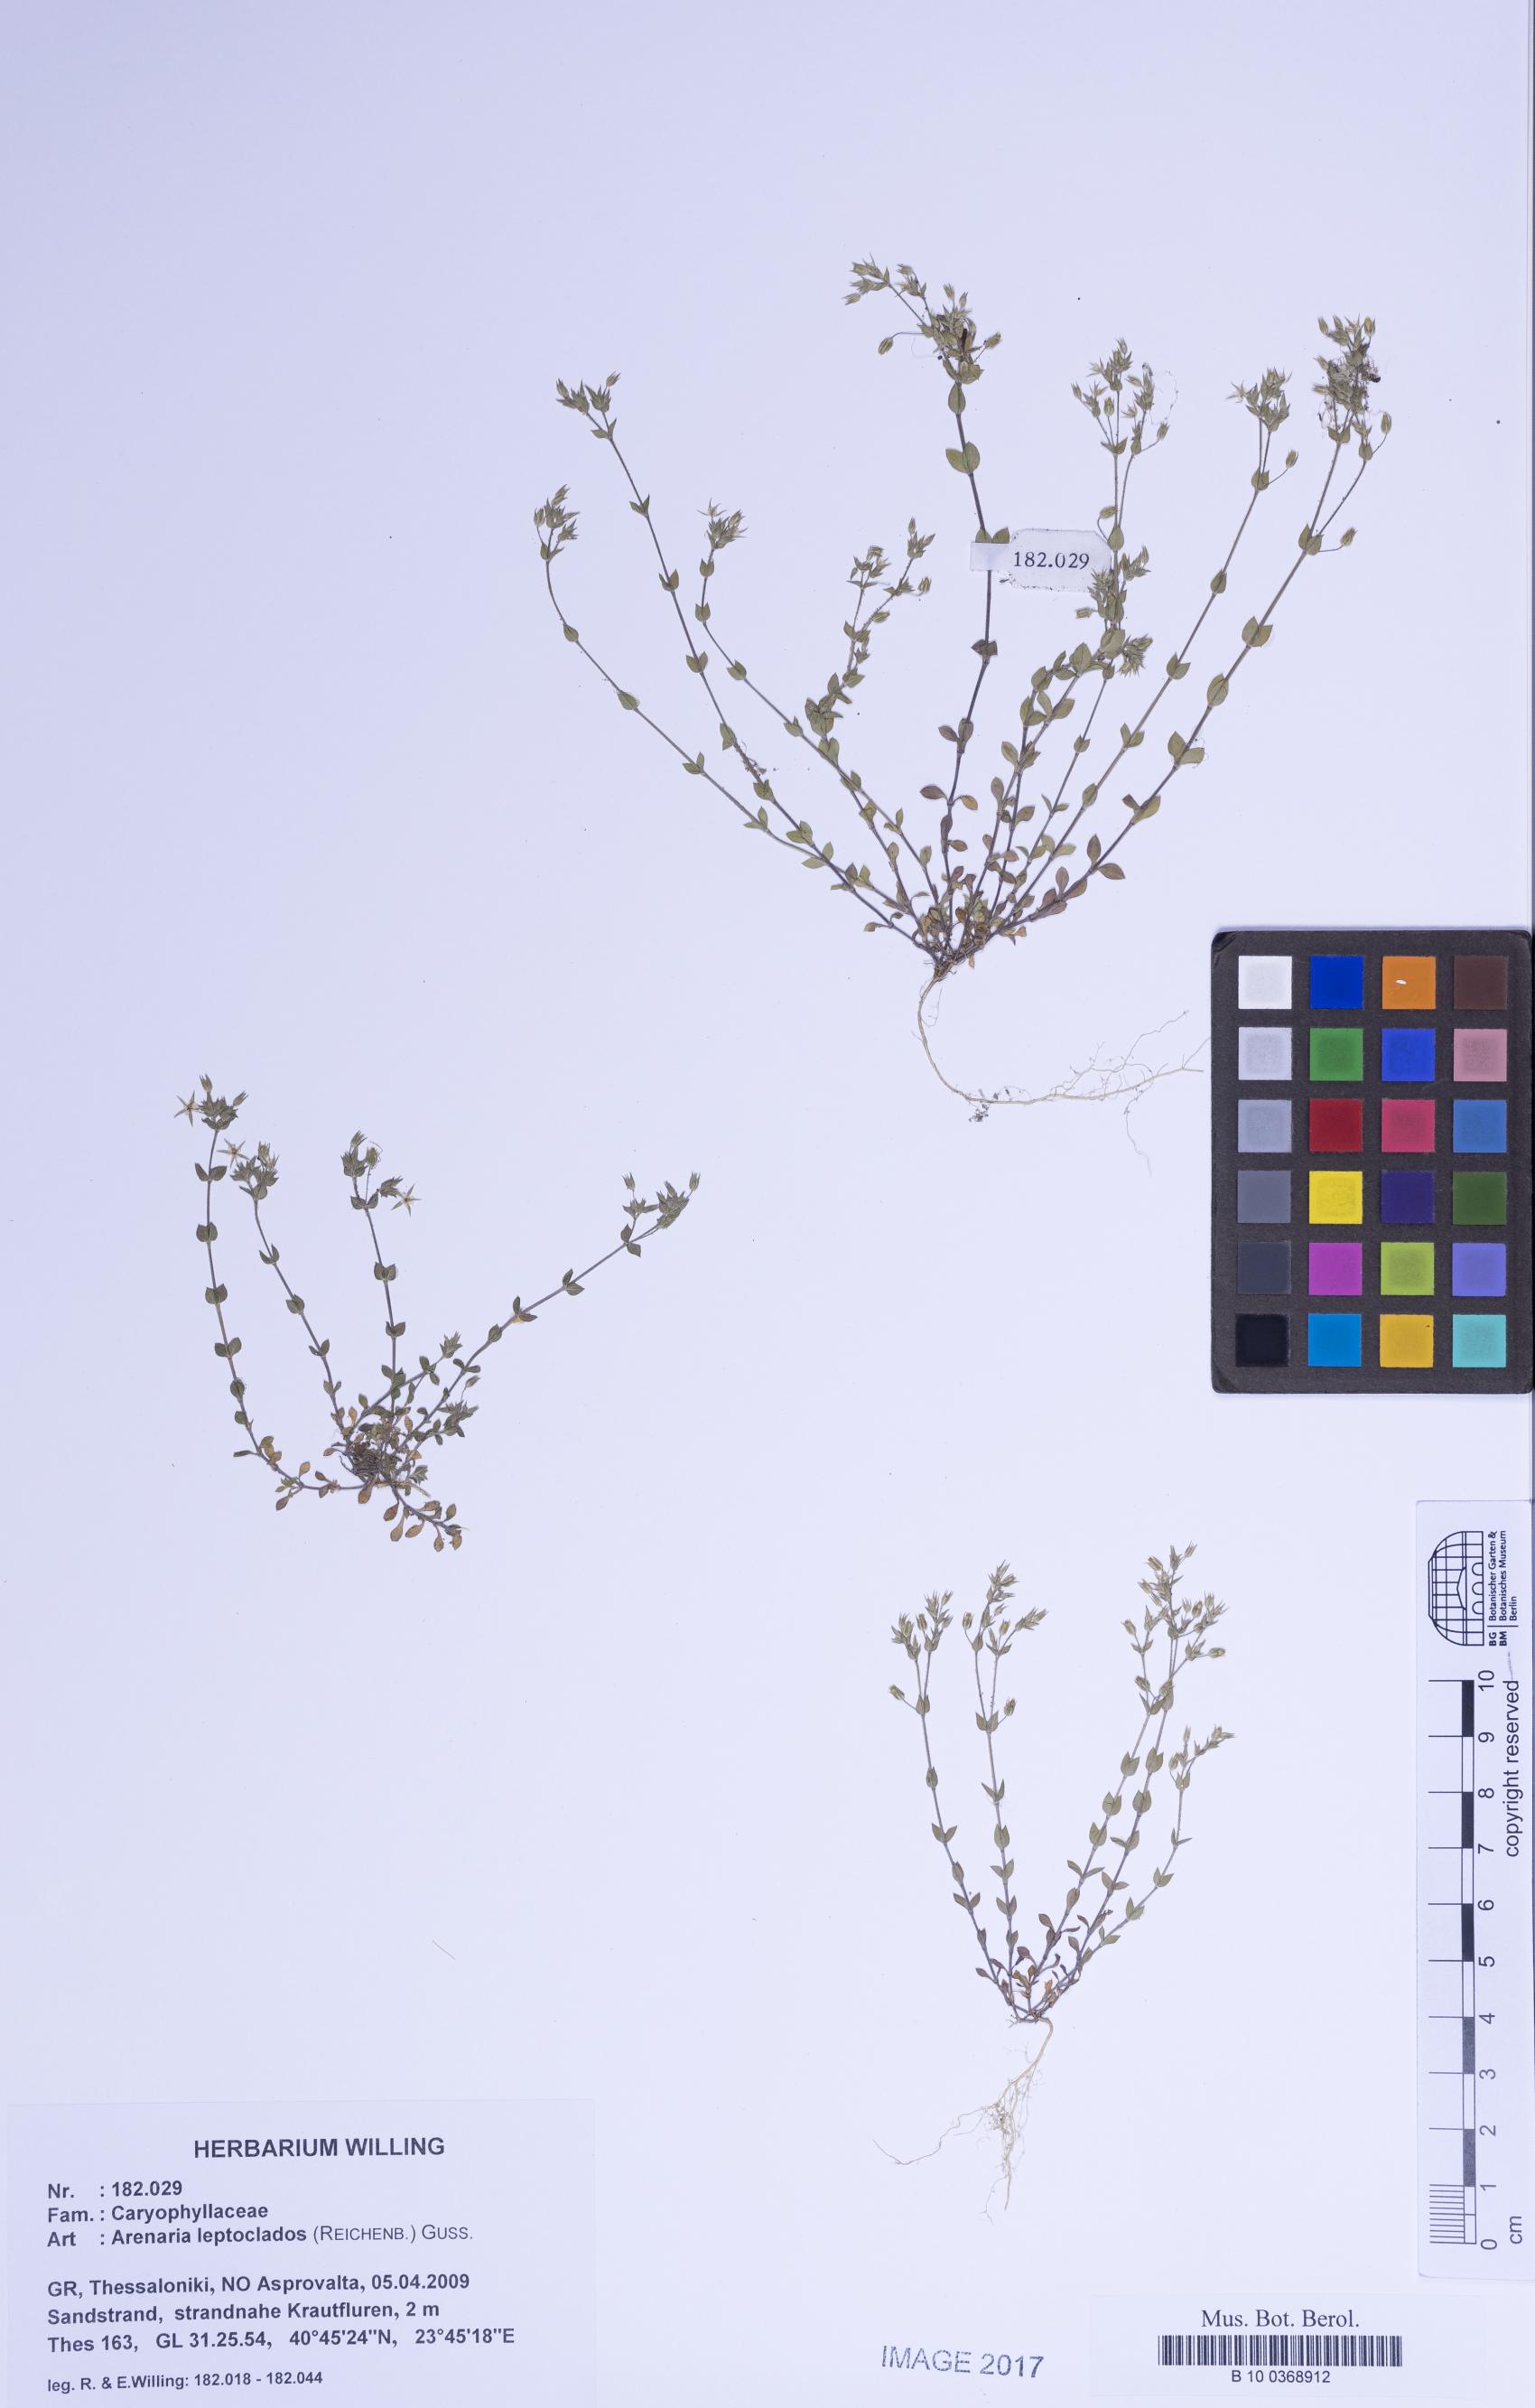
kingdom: Plantae
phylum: Tracheophyta
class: Magnoliopsida
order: Caryophyllales
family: Caryophyllaceae
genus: Arenaria
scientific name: Arenaria leptoclados
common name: Thyme-leaved sandwort
